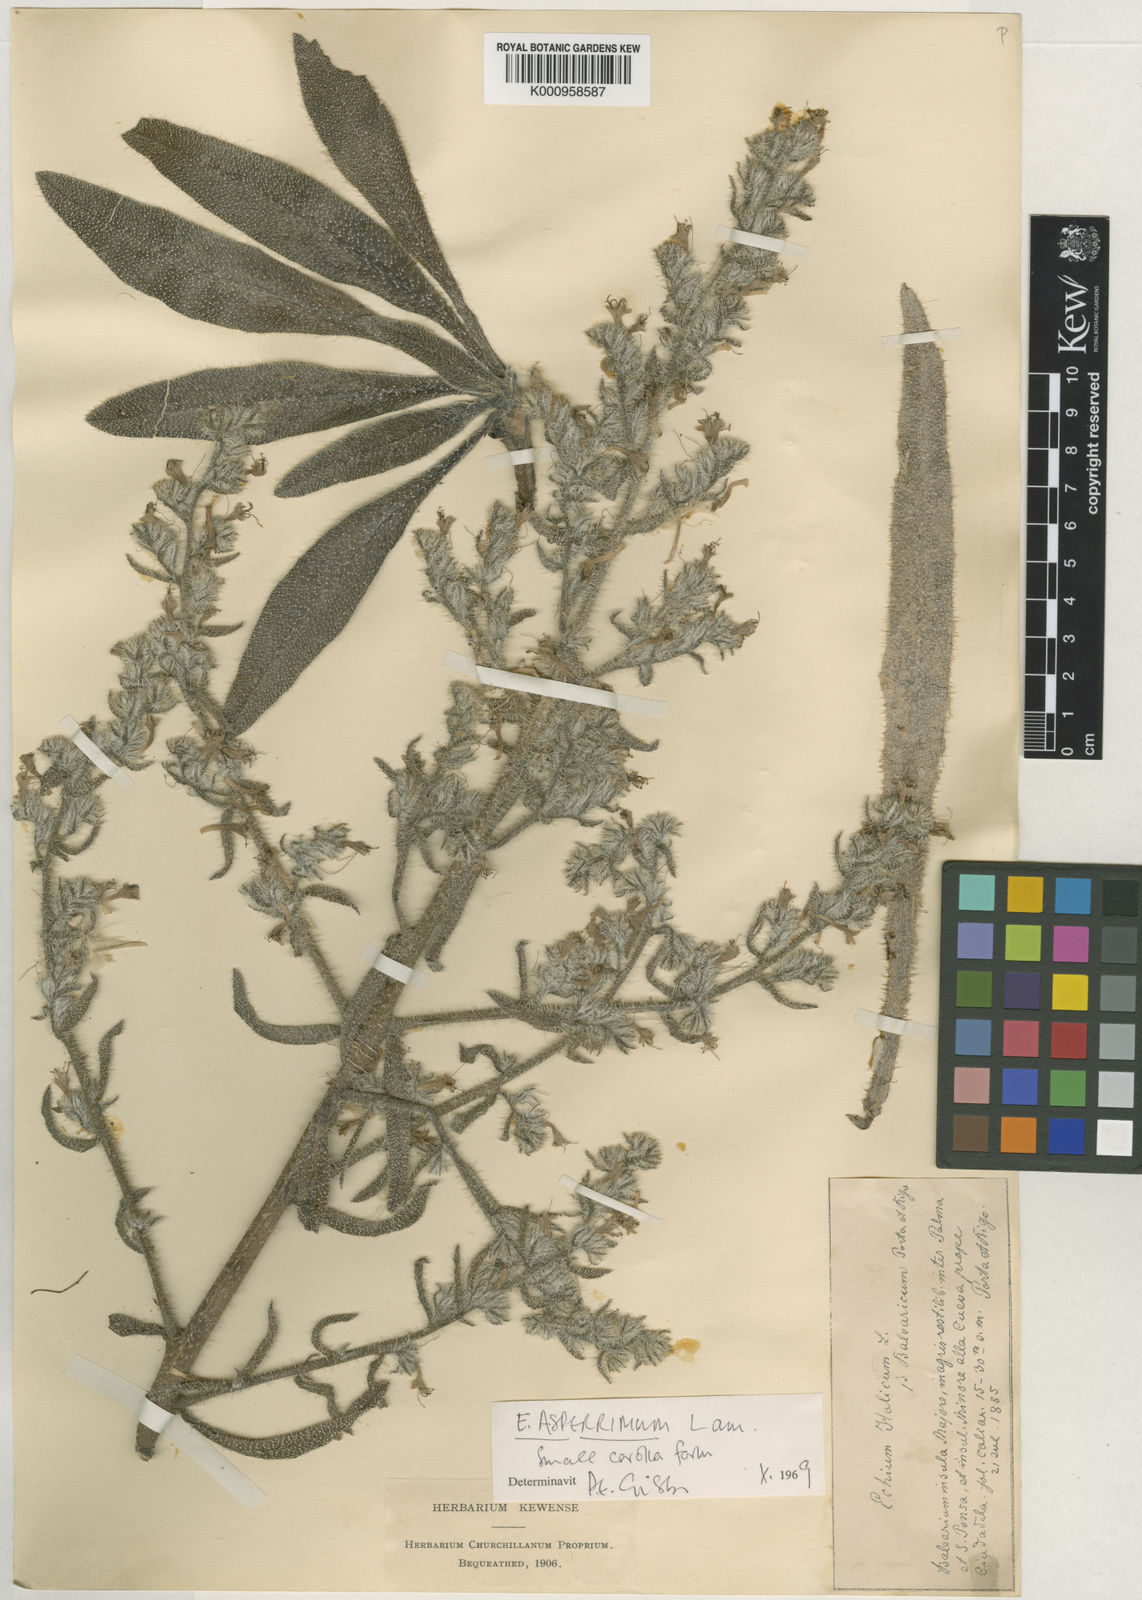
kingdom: Plantae
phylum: Tracheophyta
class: Magnoliopsida
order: Boraginales
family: Boraginaceae
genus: Echium
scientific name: Echium asperrimum
